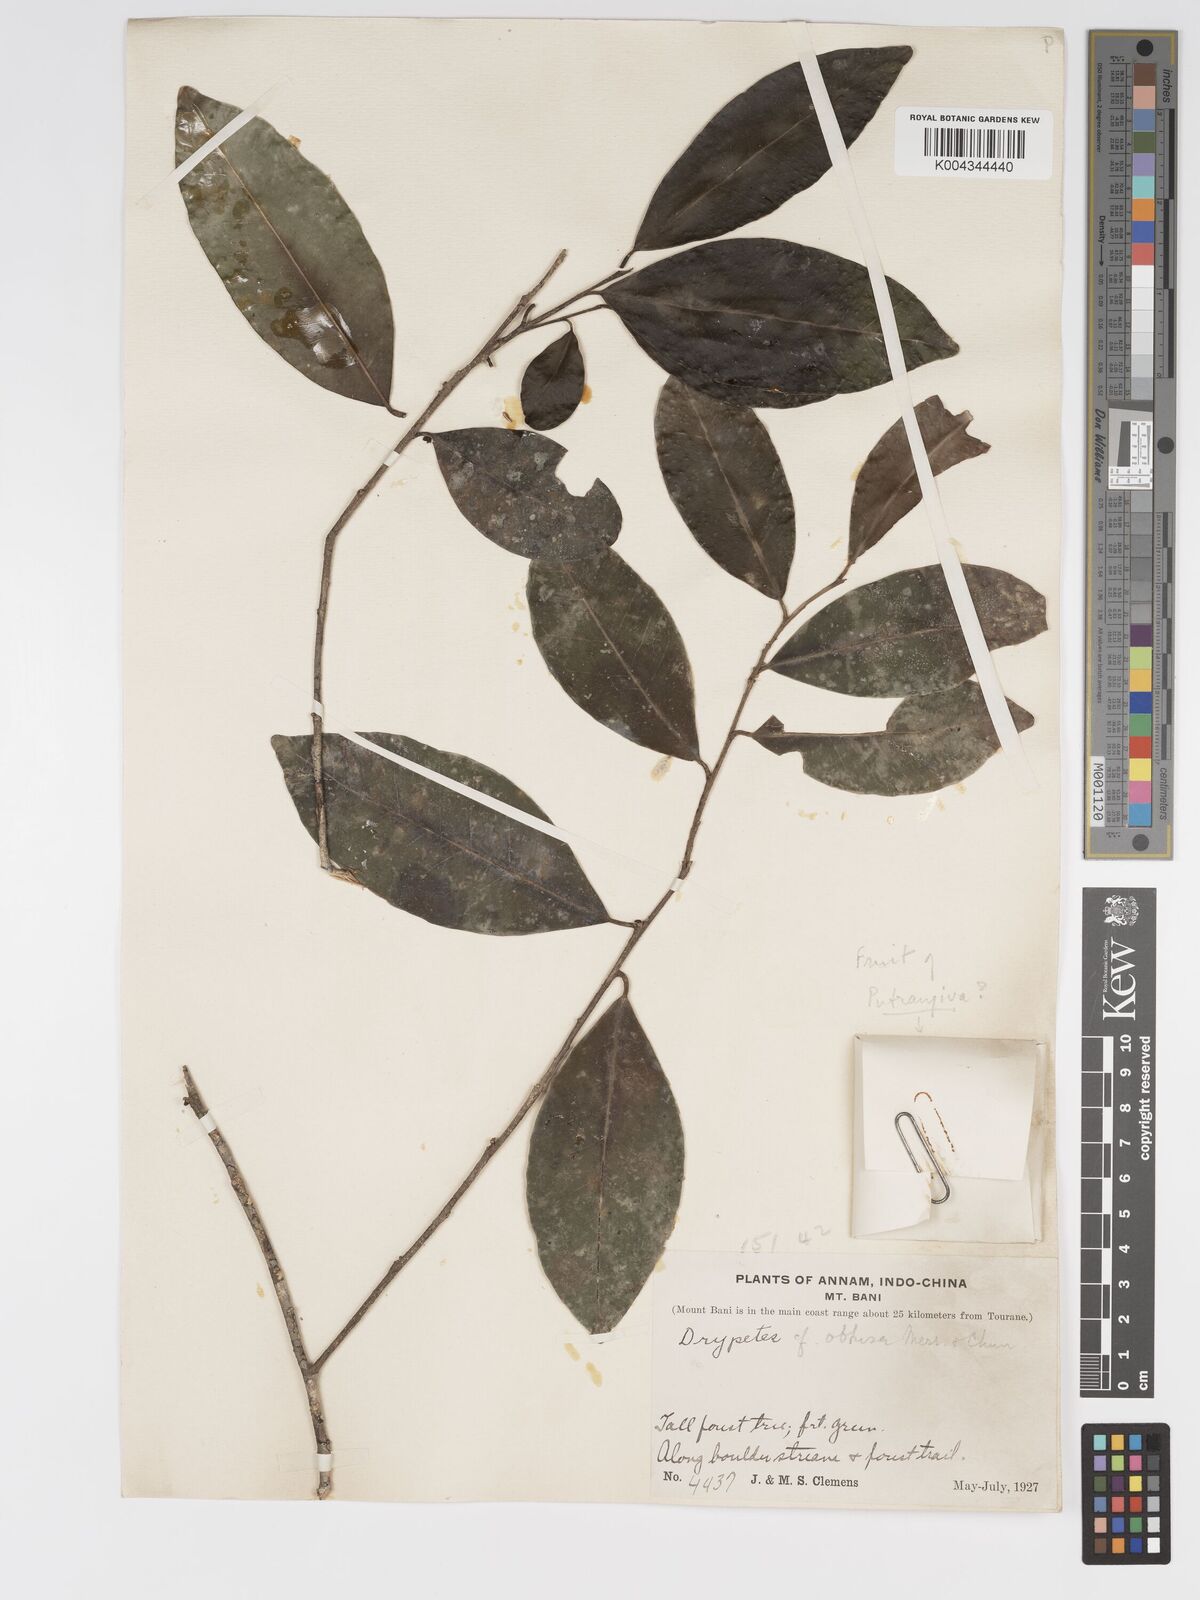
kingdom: Plantae
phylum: Tracheophyta
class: Magnoliopsida
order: Malpighiales
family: Putranjivaceae
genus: Drypetes
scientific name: Drypetes obtusa
